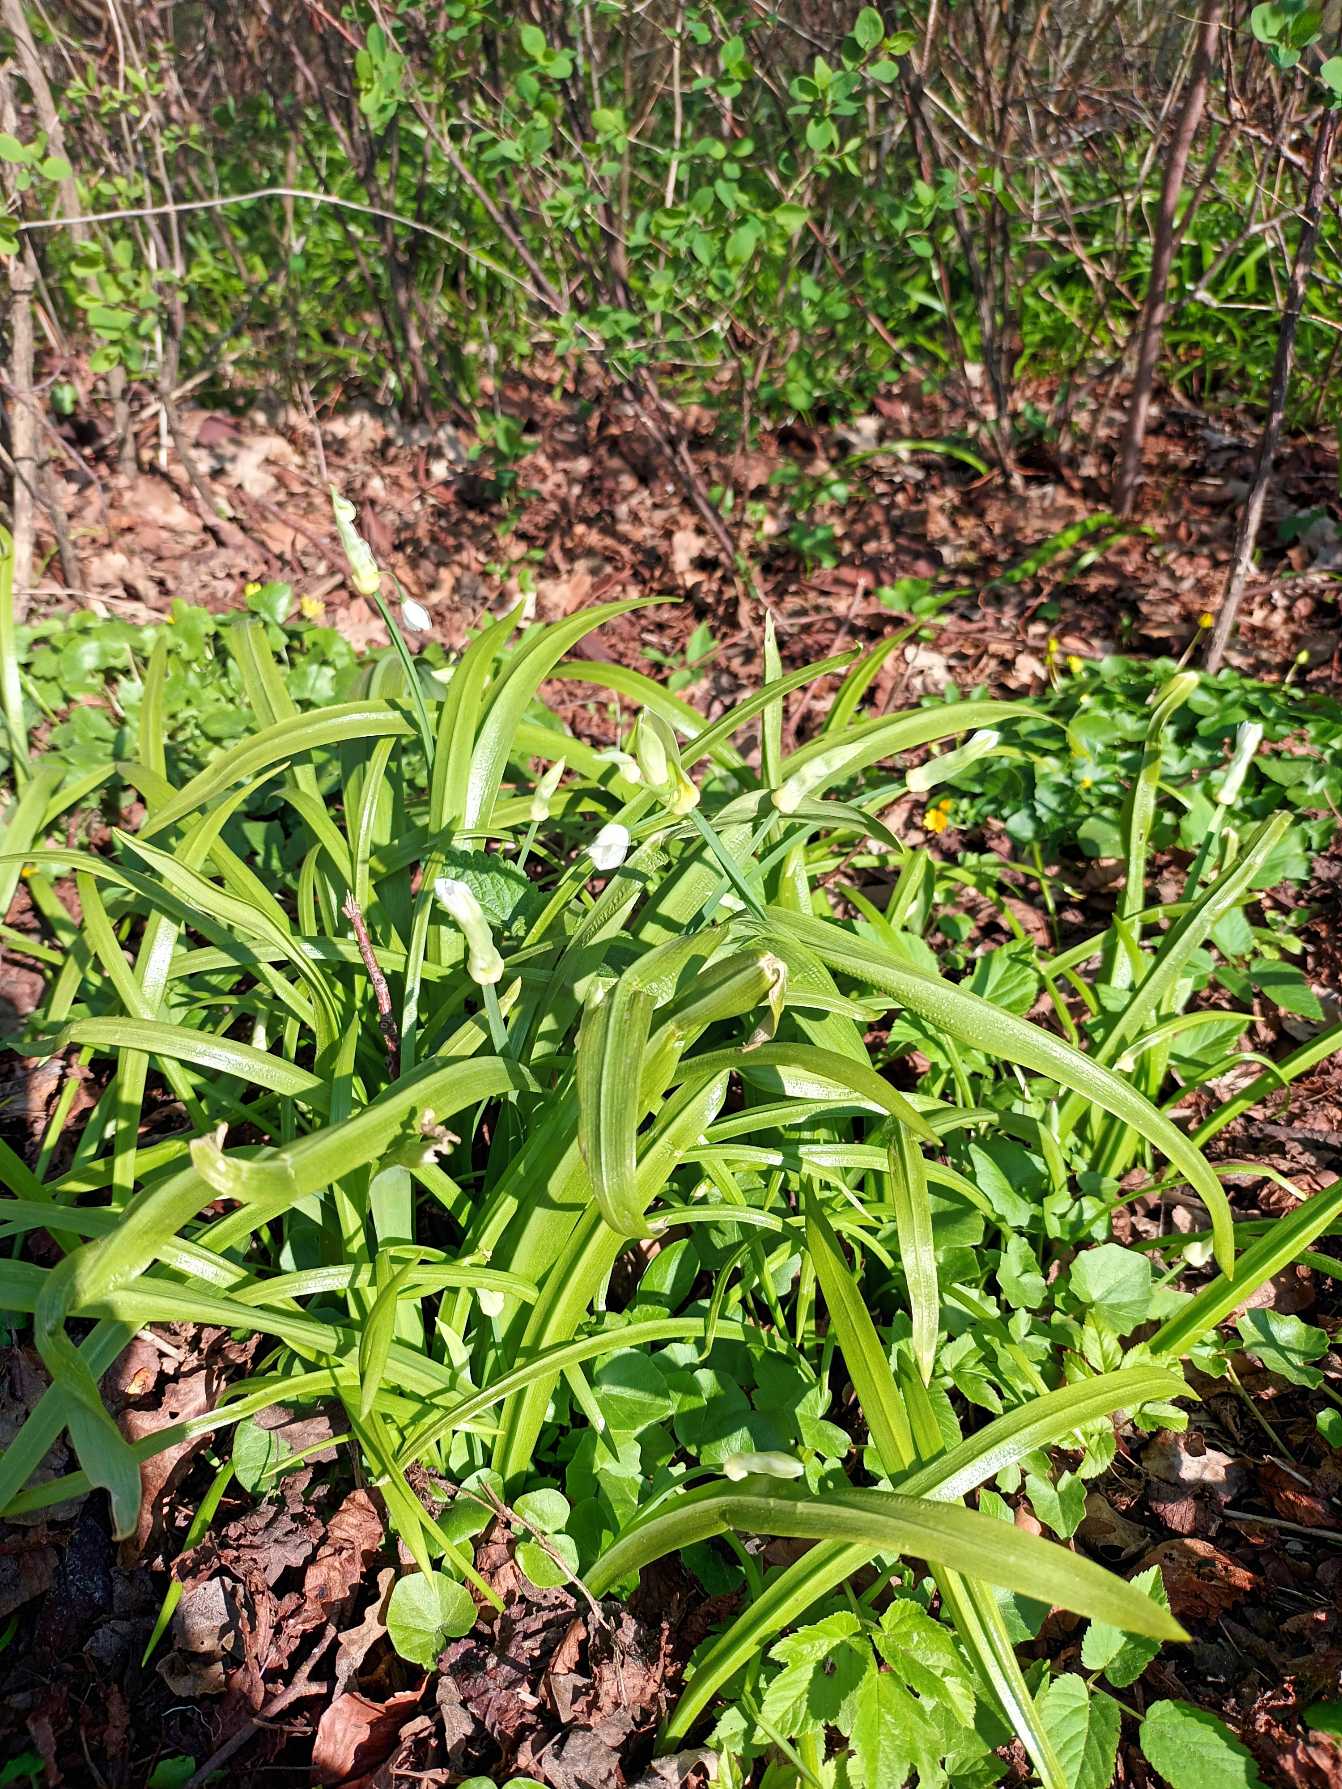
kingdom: Plantae
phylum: Tracheophyta
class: Liliopsida
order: Asparagales
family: Amaryllidaceae
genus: Allium
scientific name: Allium paradoxum
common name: Spøjs løg
